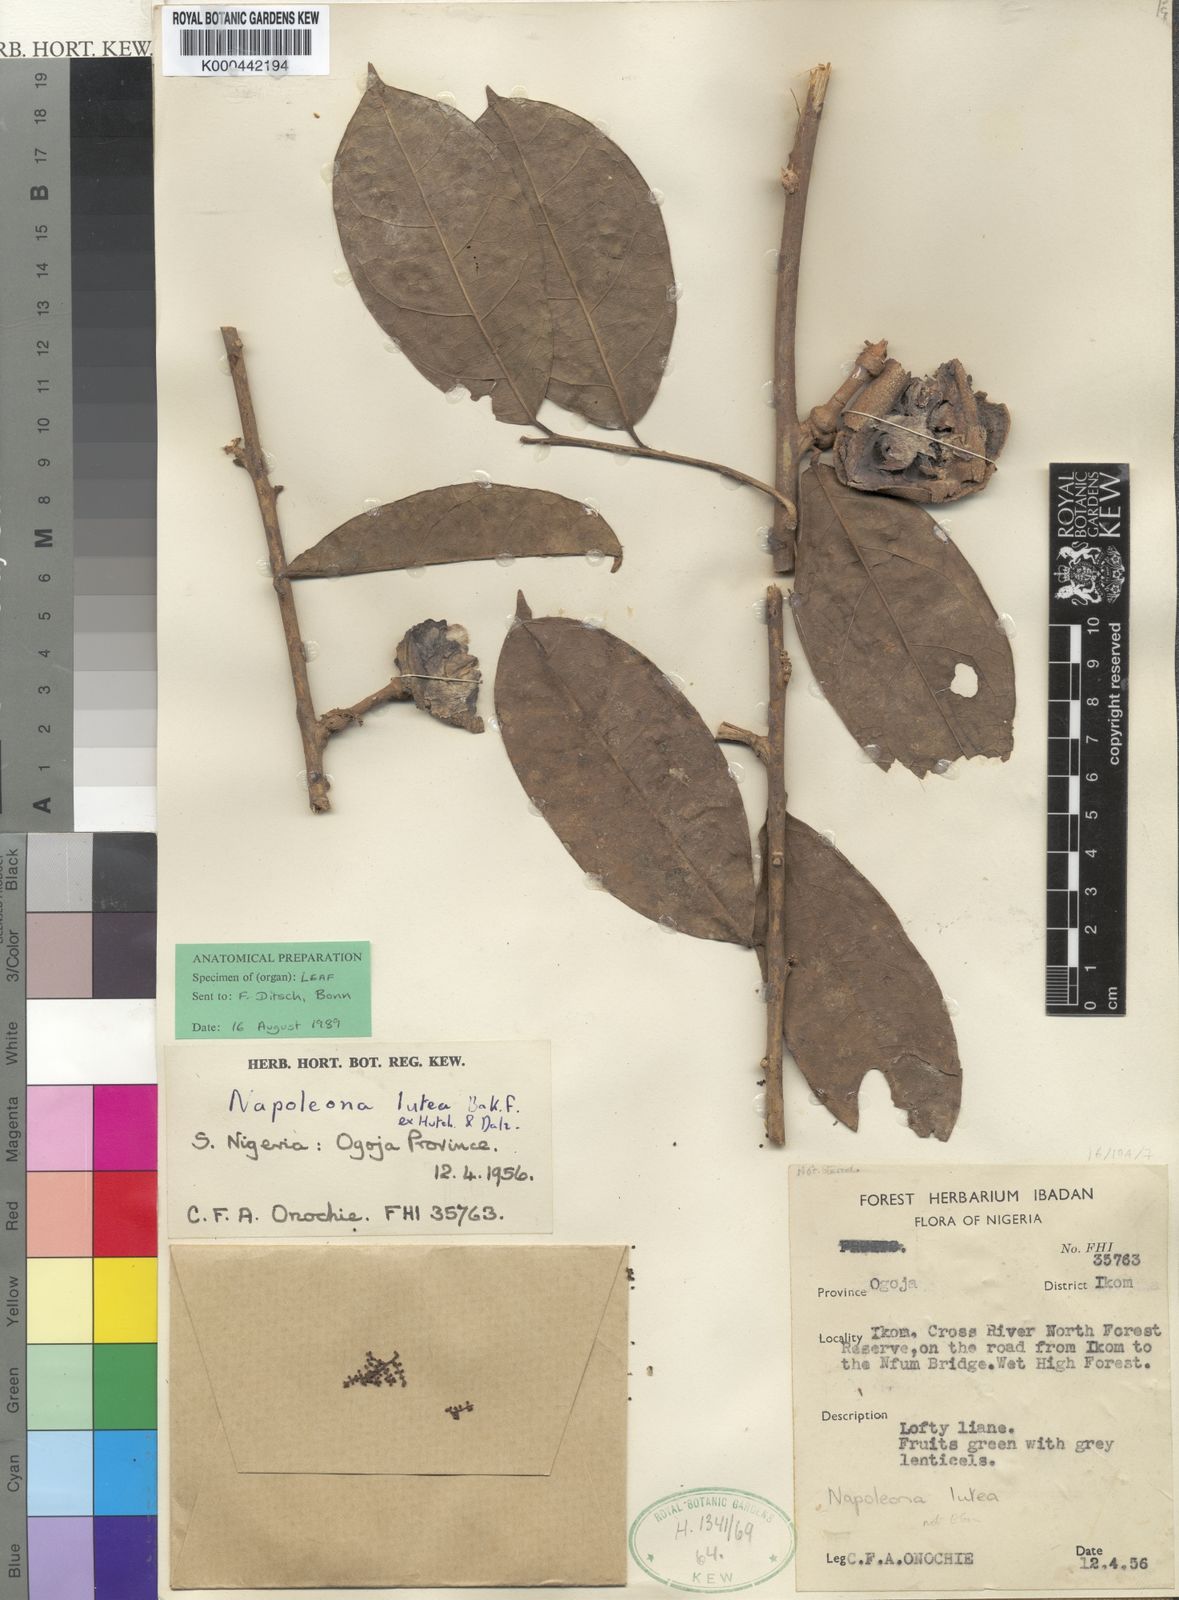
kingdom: Plantae
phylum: Tracheophyta
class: Magnoliopsida
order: Ericales
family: Lecythidaceae
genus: Napoleonaea
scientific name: Napoleonaea lutea ex
